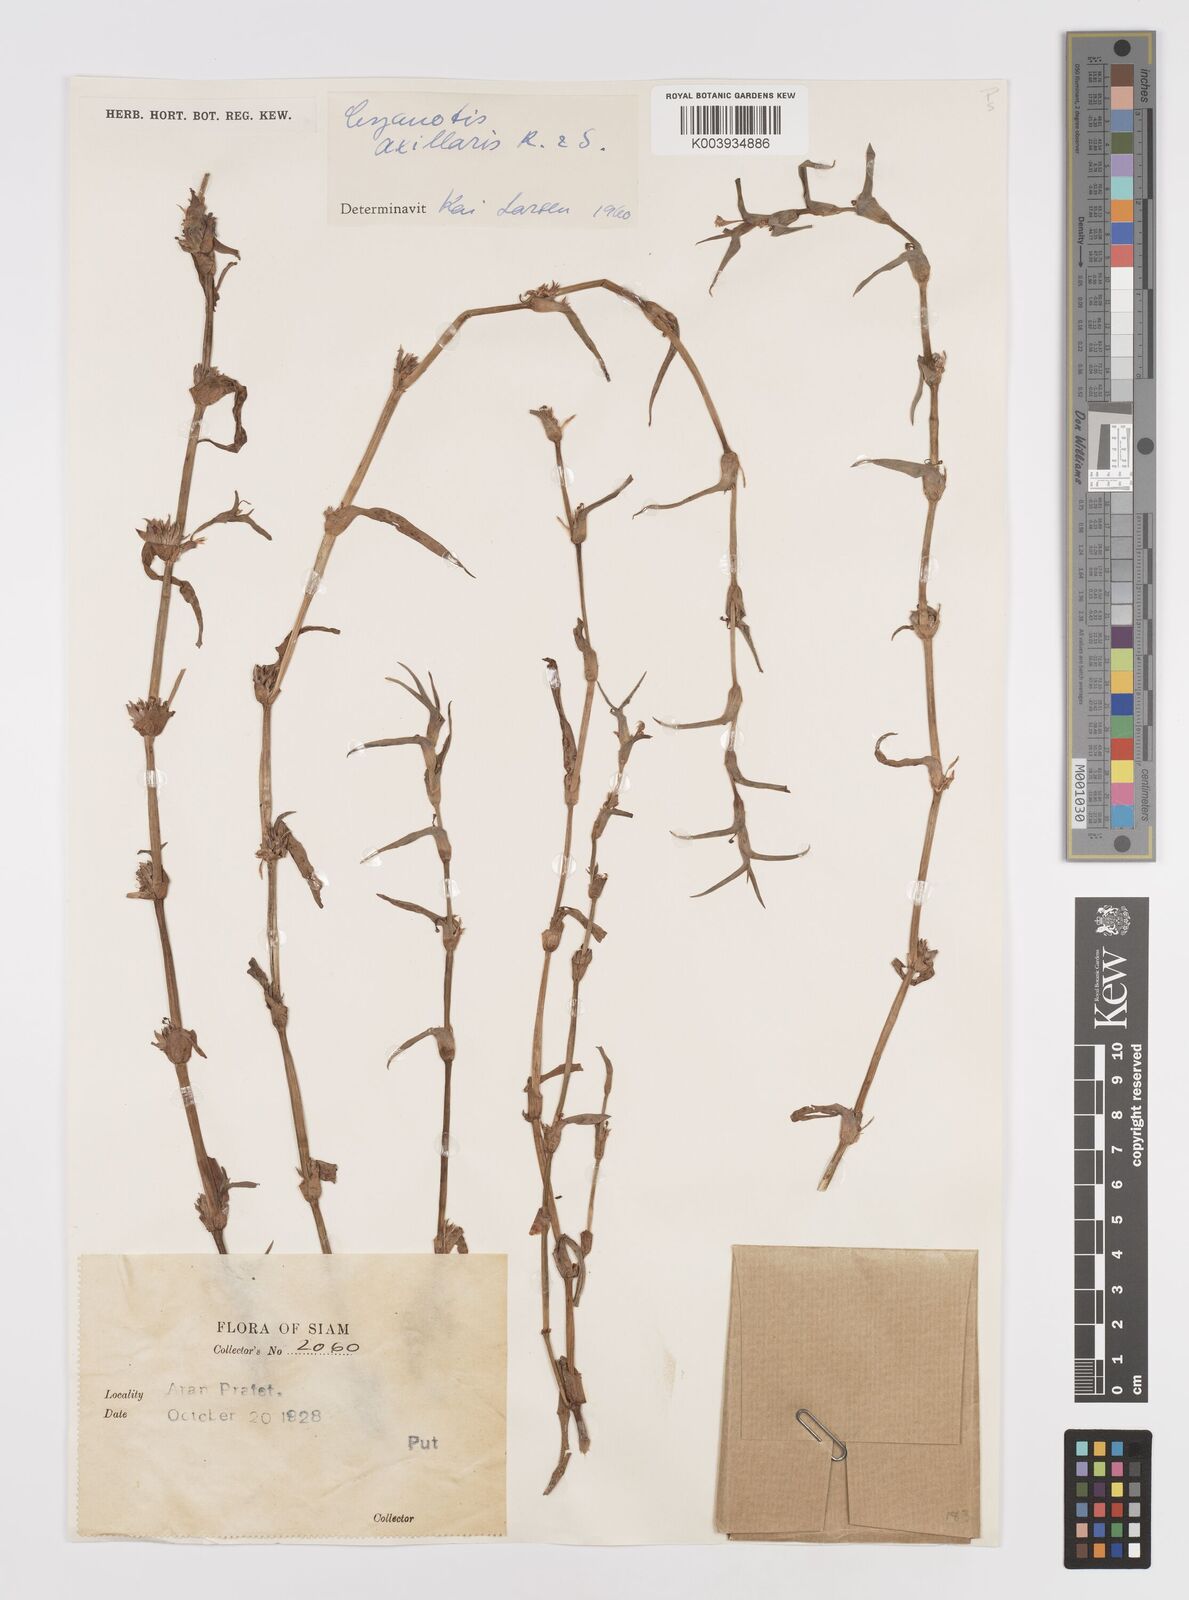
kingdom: Plantae
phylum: Tracheophyta
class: Liliopsida
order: Commelinales
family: Commelinaceae
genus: Cyanotis
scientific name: Cyanotis axillaris
